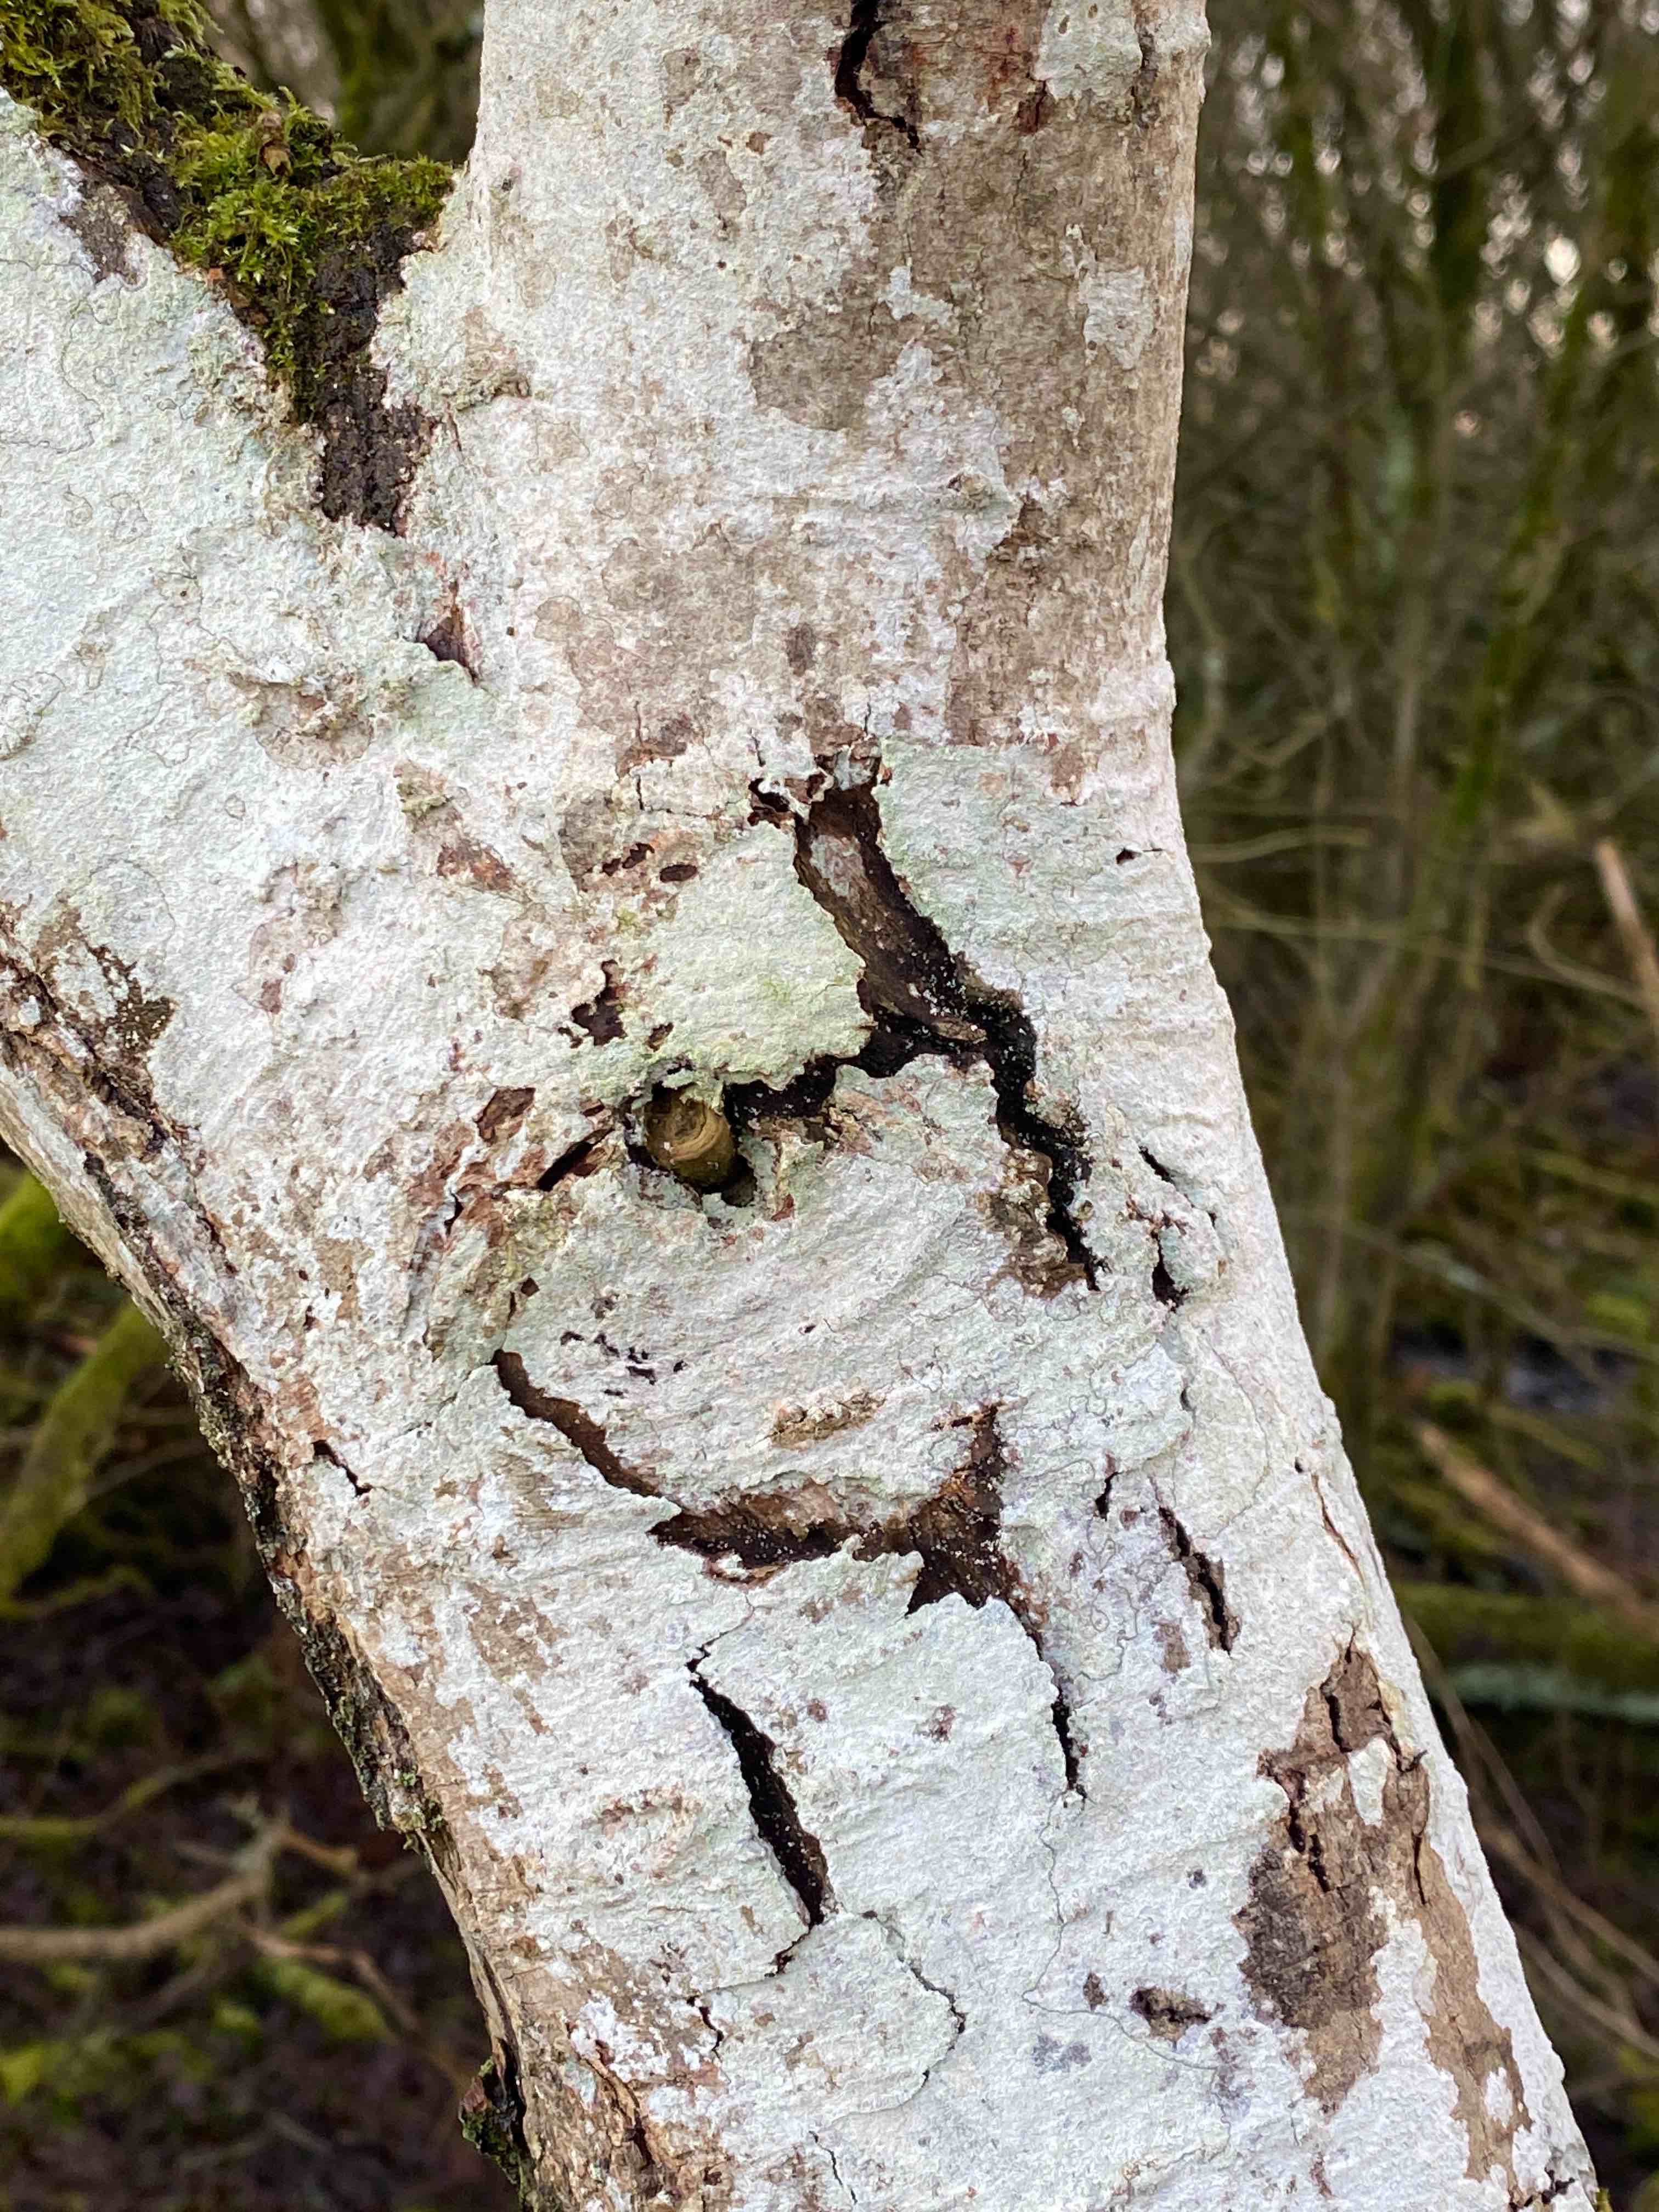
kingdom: Fungi
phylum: Ascomycota
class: Lecanoromycetes
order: Ostropales
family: Phlyctidaceae
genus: Phlyctis
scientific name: Phlyctis argena
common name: almindelig sølvlav
